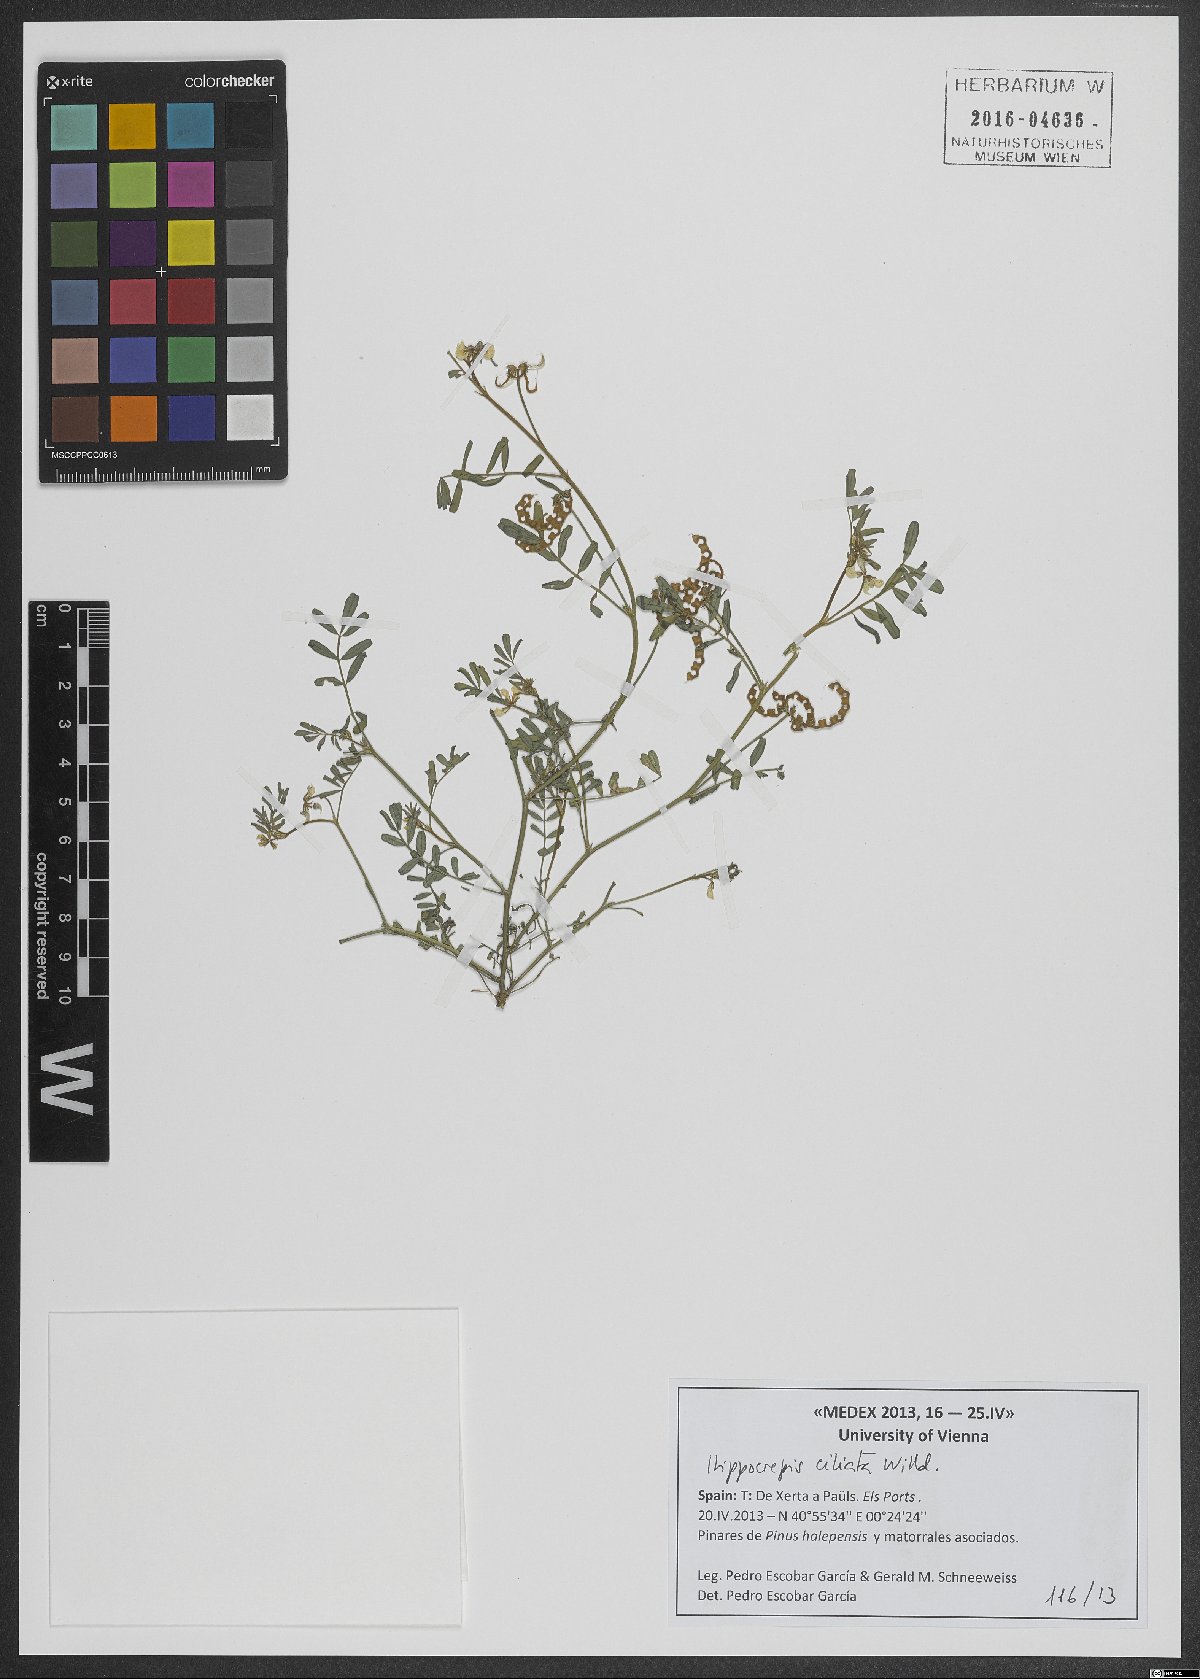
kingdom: Plantae
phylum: Tracheophyta
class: Magnoliopsida
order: Fabales
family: Fabaceae
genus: Hippocrepis
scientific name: Hippocrepis ciliata
